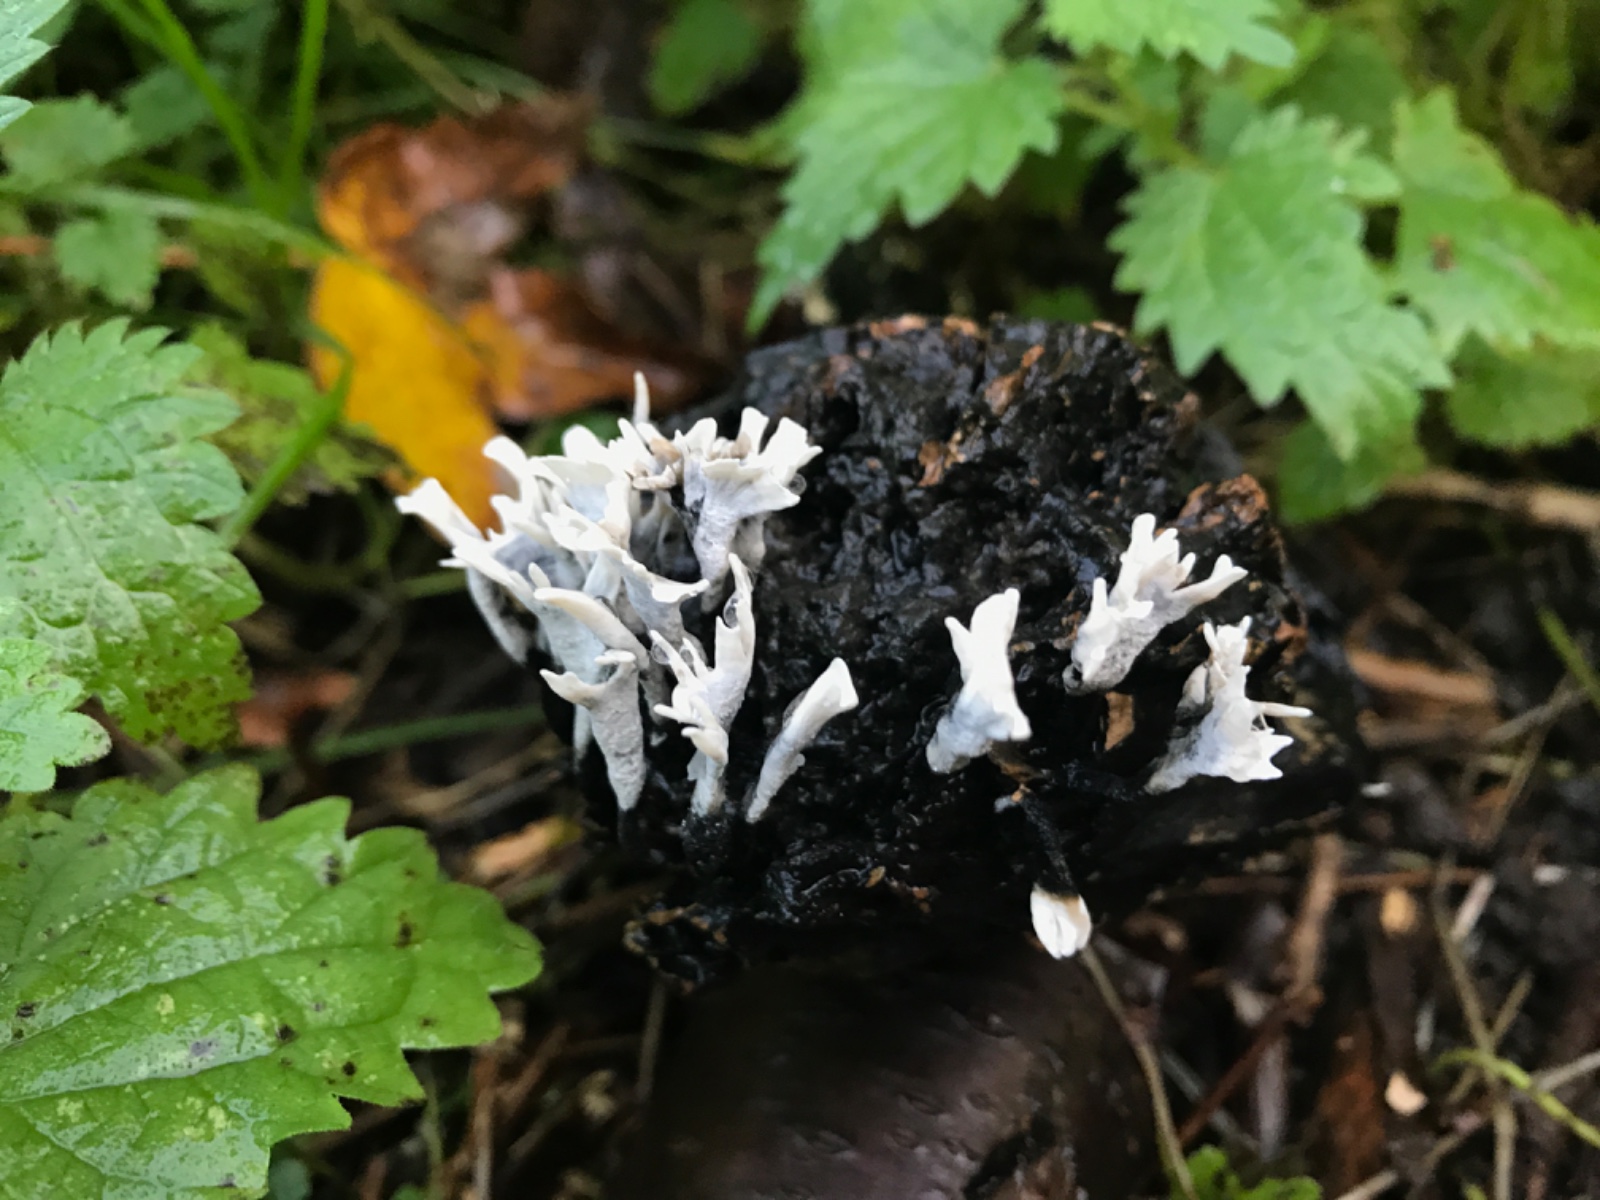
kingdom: Fungi
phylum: Ascomycota
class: Sordariomycetes
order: Xylariales
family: Xylariaceae
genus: Xylaria
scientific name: Xylaria hypoxylon
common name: grenet stødsvamp
